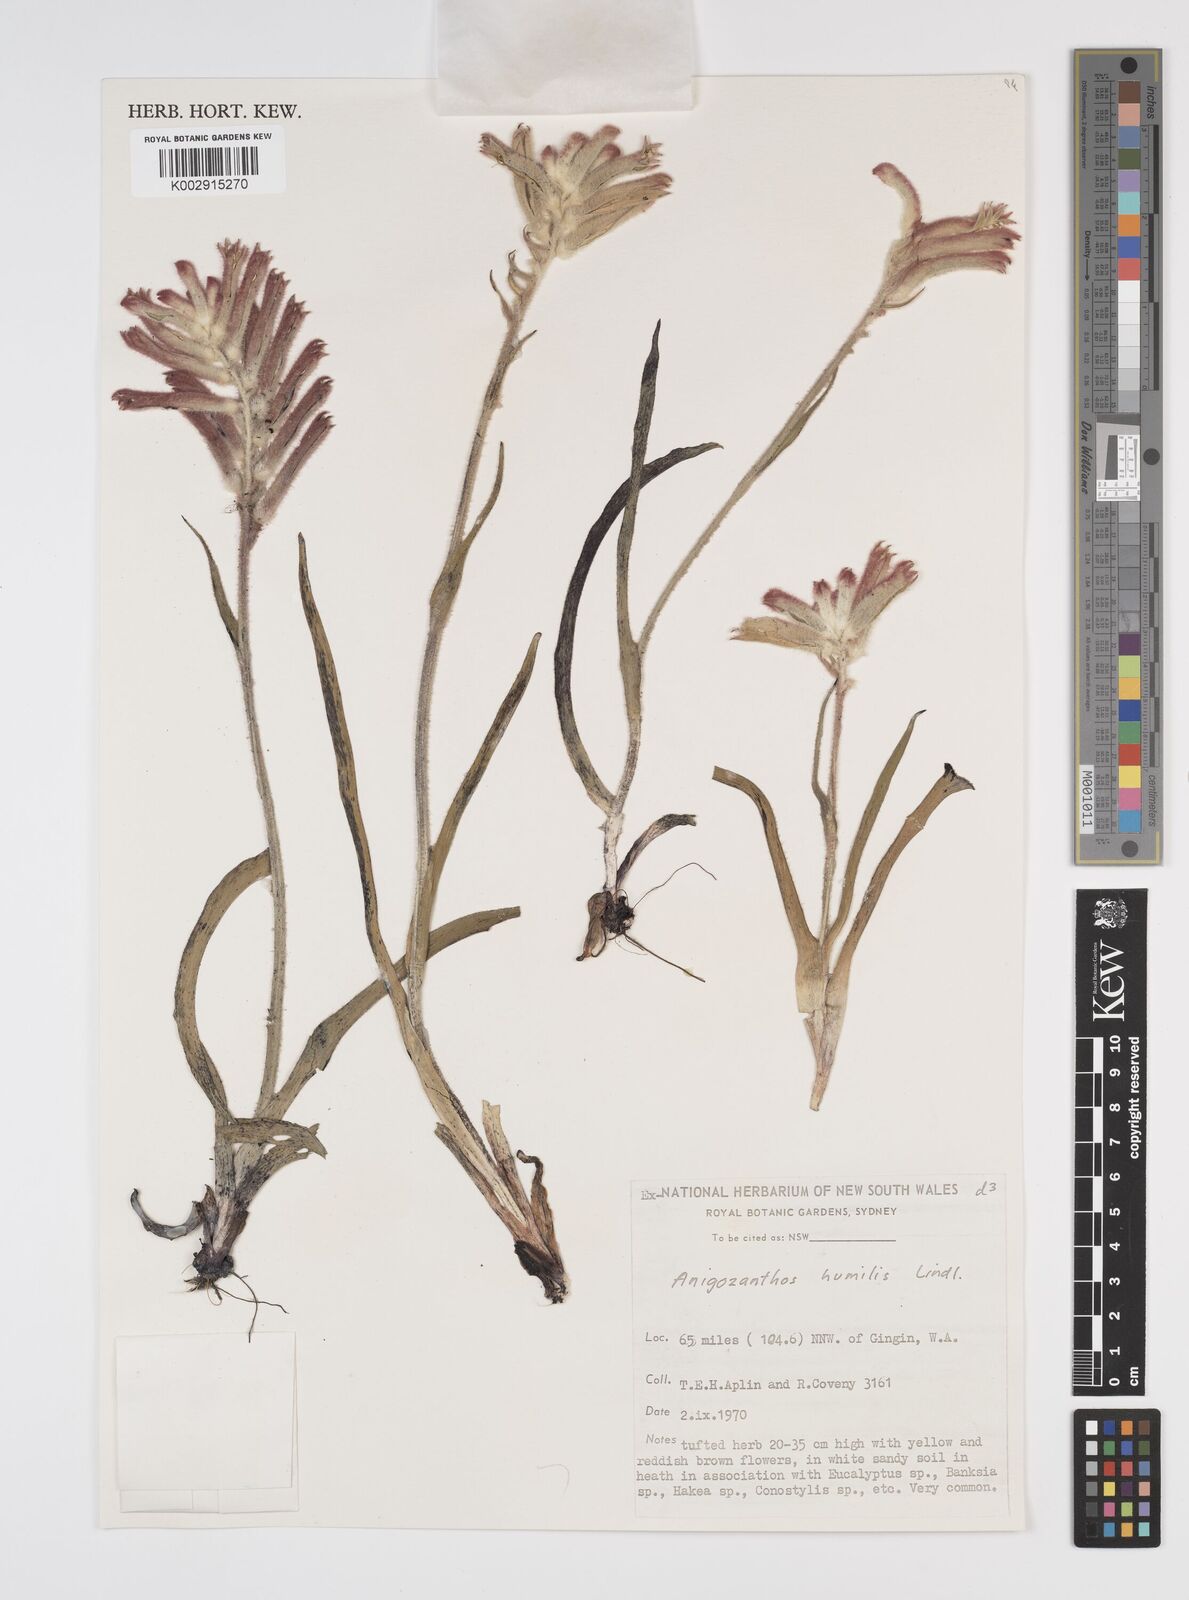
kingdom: Plantae
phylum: Tracheophyta
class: Liliopsida
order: Commelinales
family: Haemodoraceae
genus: Anigozanthos
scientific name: Anigozanthos humilis
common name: Cat's-paw
